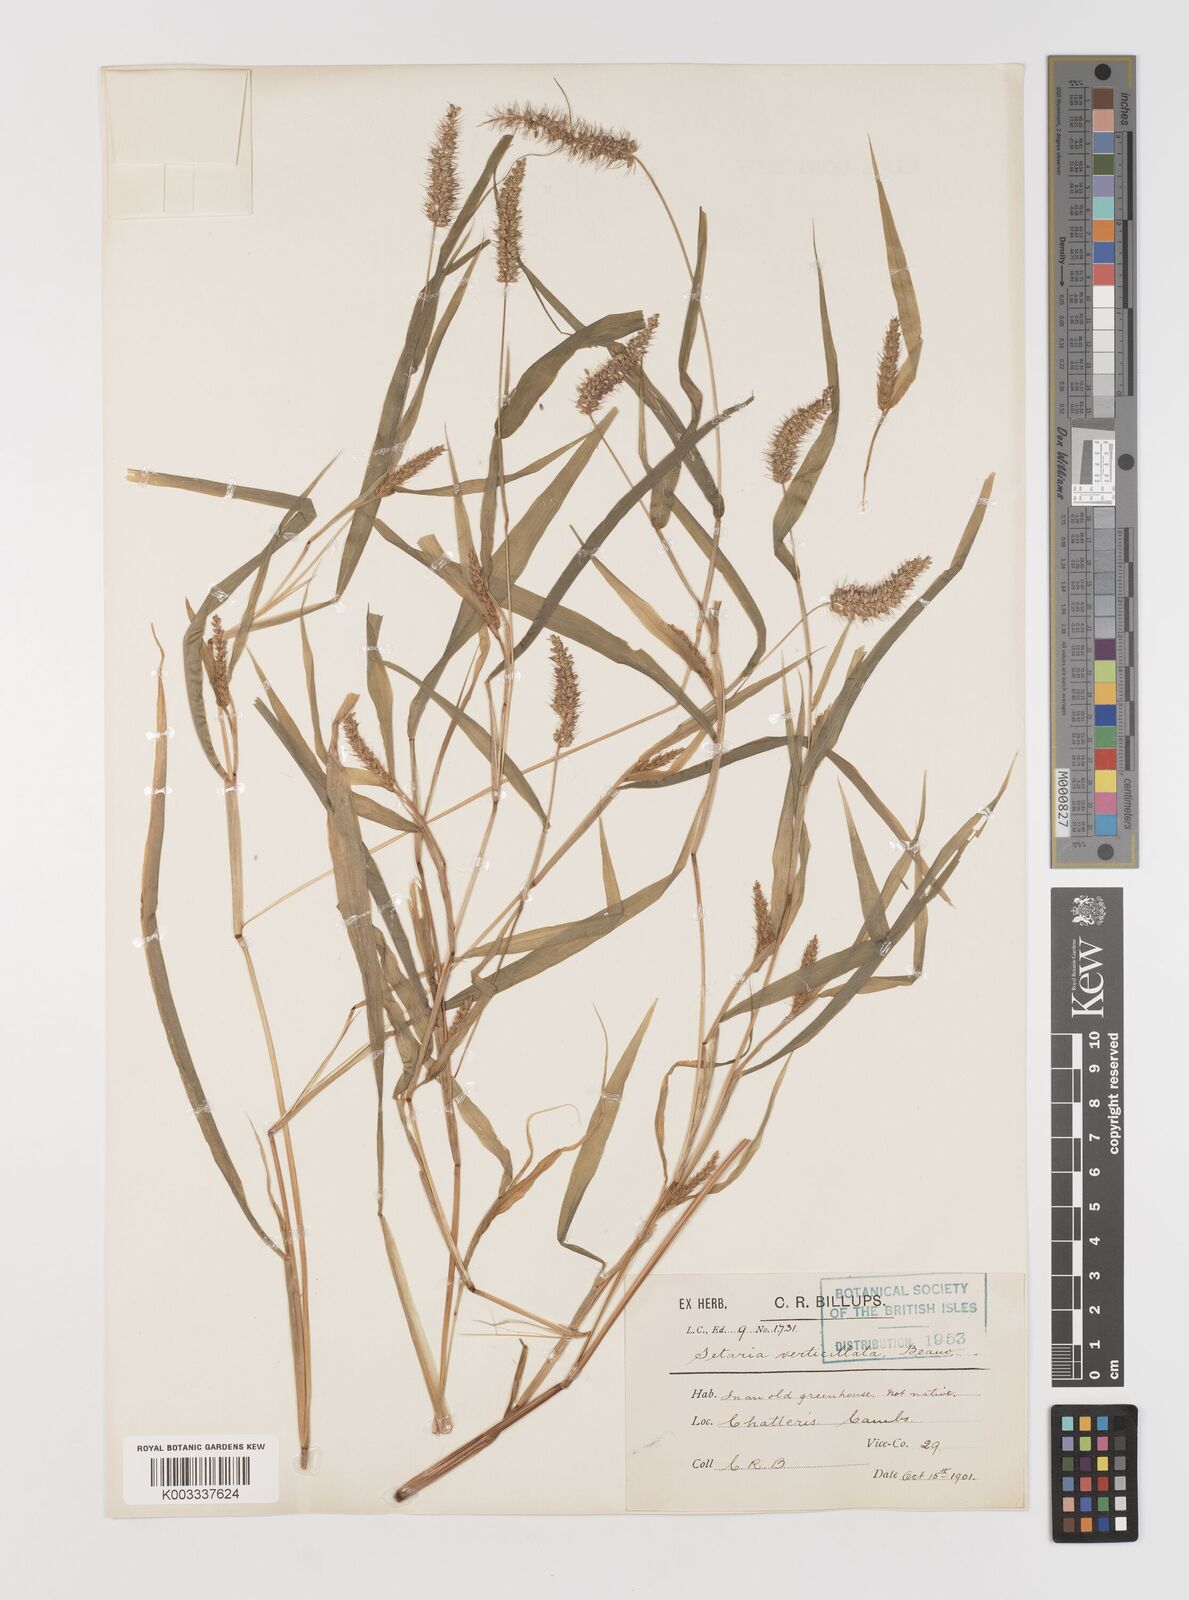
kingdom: Plantae
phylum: Tracheophyta
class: Liliopsida
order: Poales
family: Poaceae
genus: Setaria
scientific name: Setaria verticillata
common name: Hooked bristlegrass
